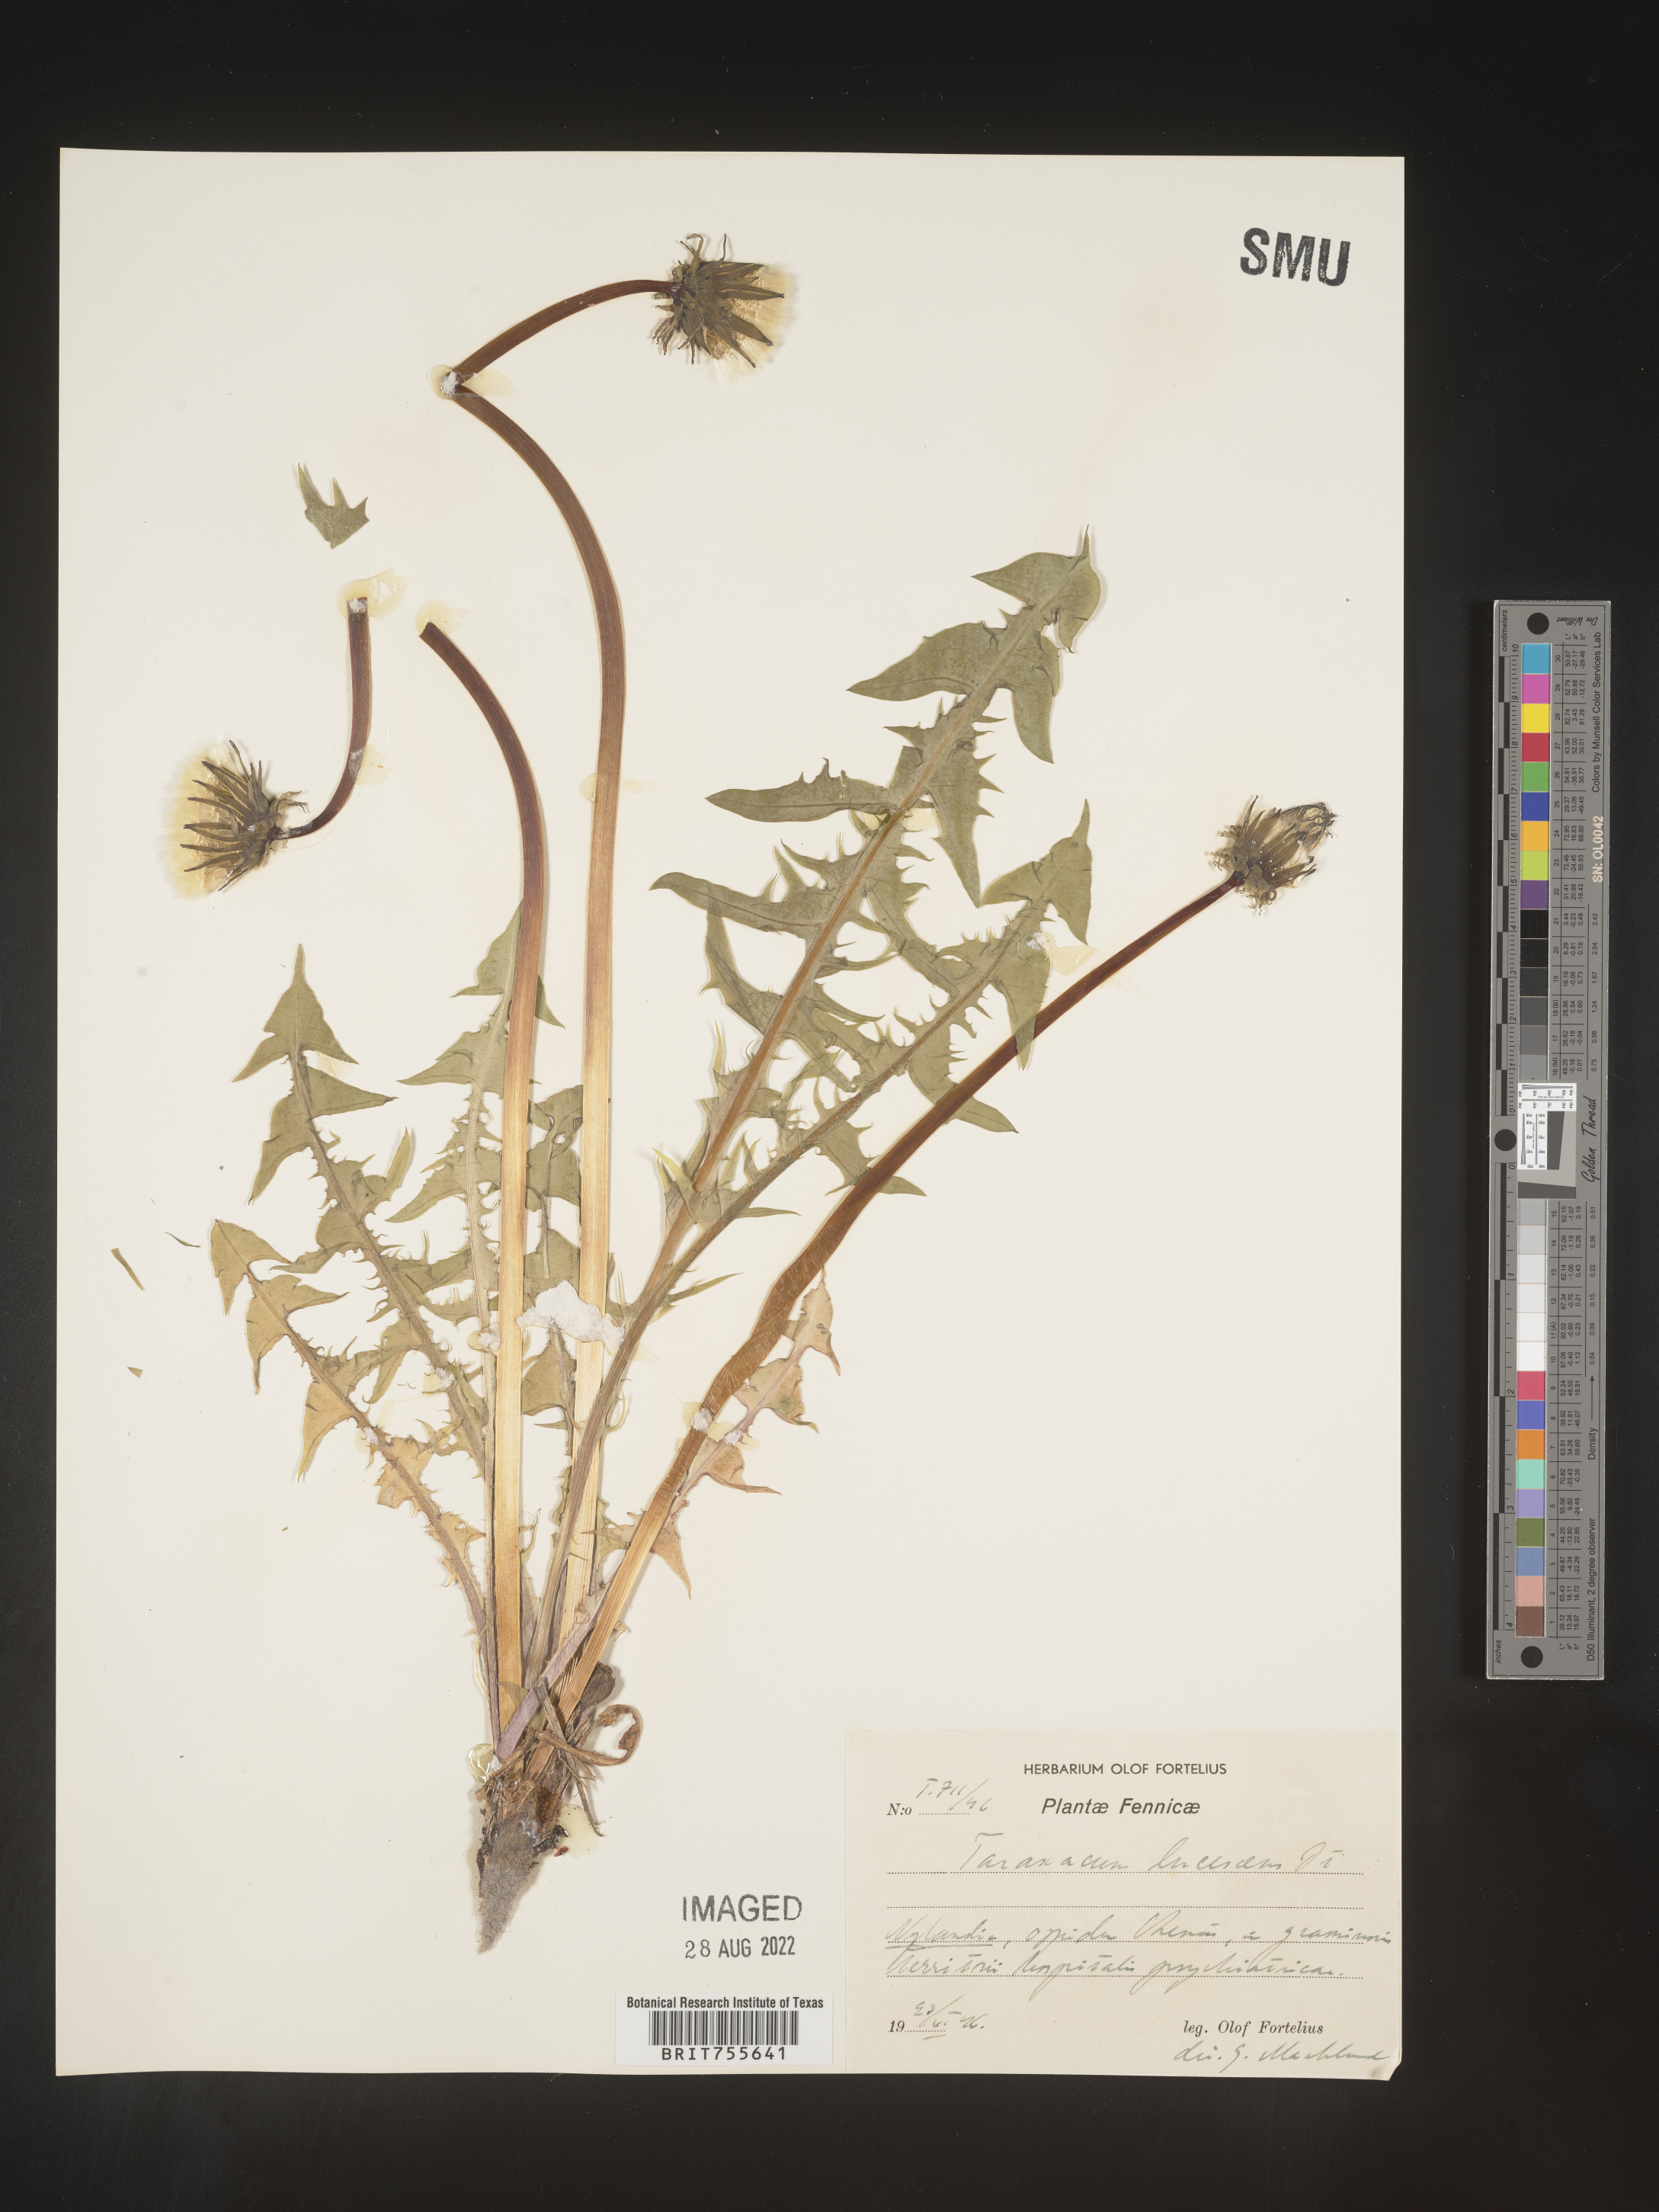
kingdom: Plantae
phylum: Tracheophyta
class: Magnoliopsida
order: Asterales
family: Asteraceae
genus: Taraxacum
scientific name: Taraxacum
